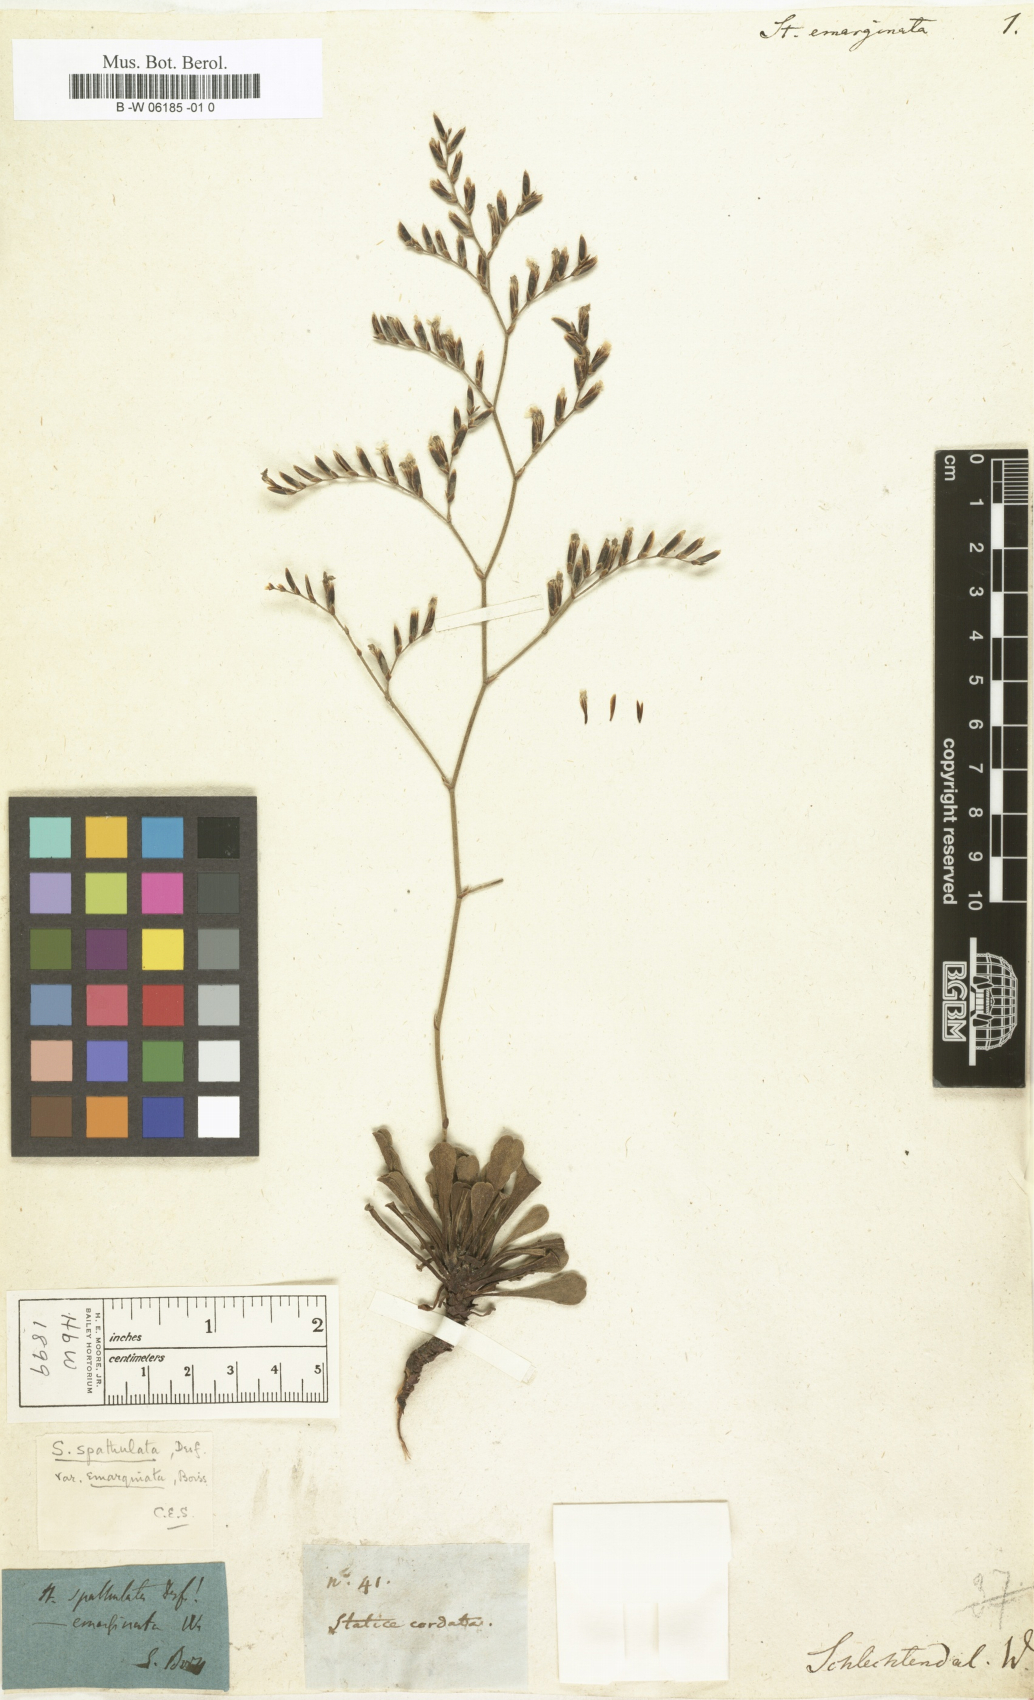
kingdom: Plantae
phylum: Tracheophyta
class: Magnoliopsida
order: Caryophyllales
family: Plumbaginaceae
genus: Limonium
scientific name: Limonium
